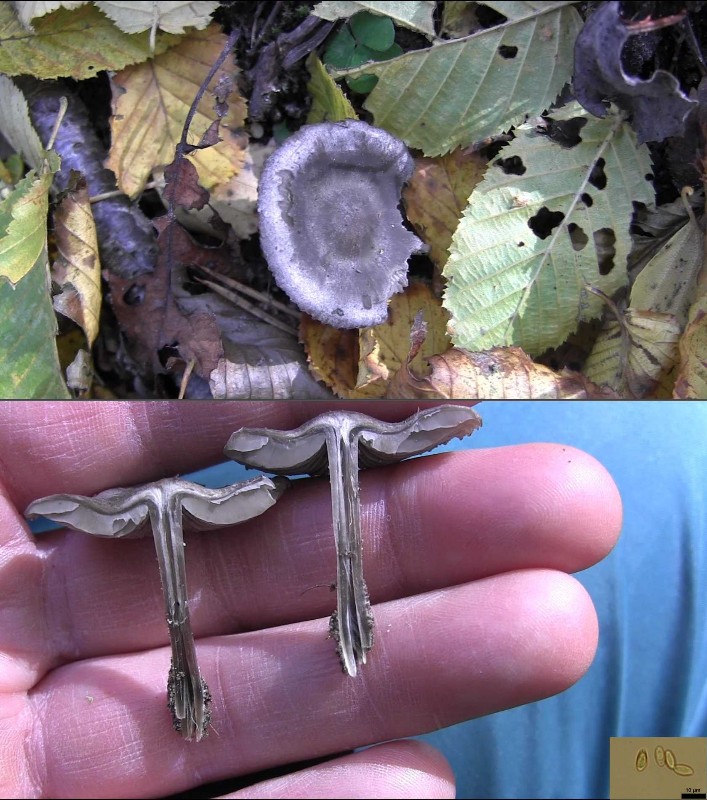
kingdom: Fungi
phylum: Basidiomycota
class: Agaricomycetes
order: Agaricales
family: Lyophyllaceae
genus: Tephrocybe
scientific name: Tephrocybe rancida
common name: mel-gråblad
